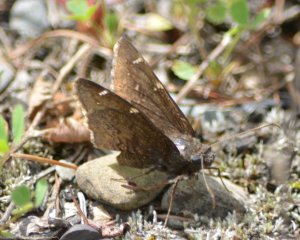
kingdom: Animalia
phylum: Arthropoda
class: Insecta
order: Lepidoptera
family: Hesperiidae
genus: Autochton
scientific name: Autochton
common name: Northern Cloudywing
